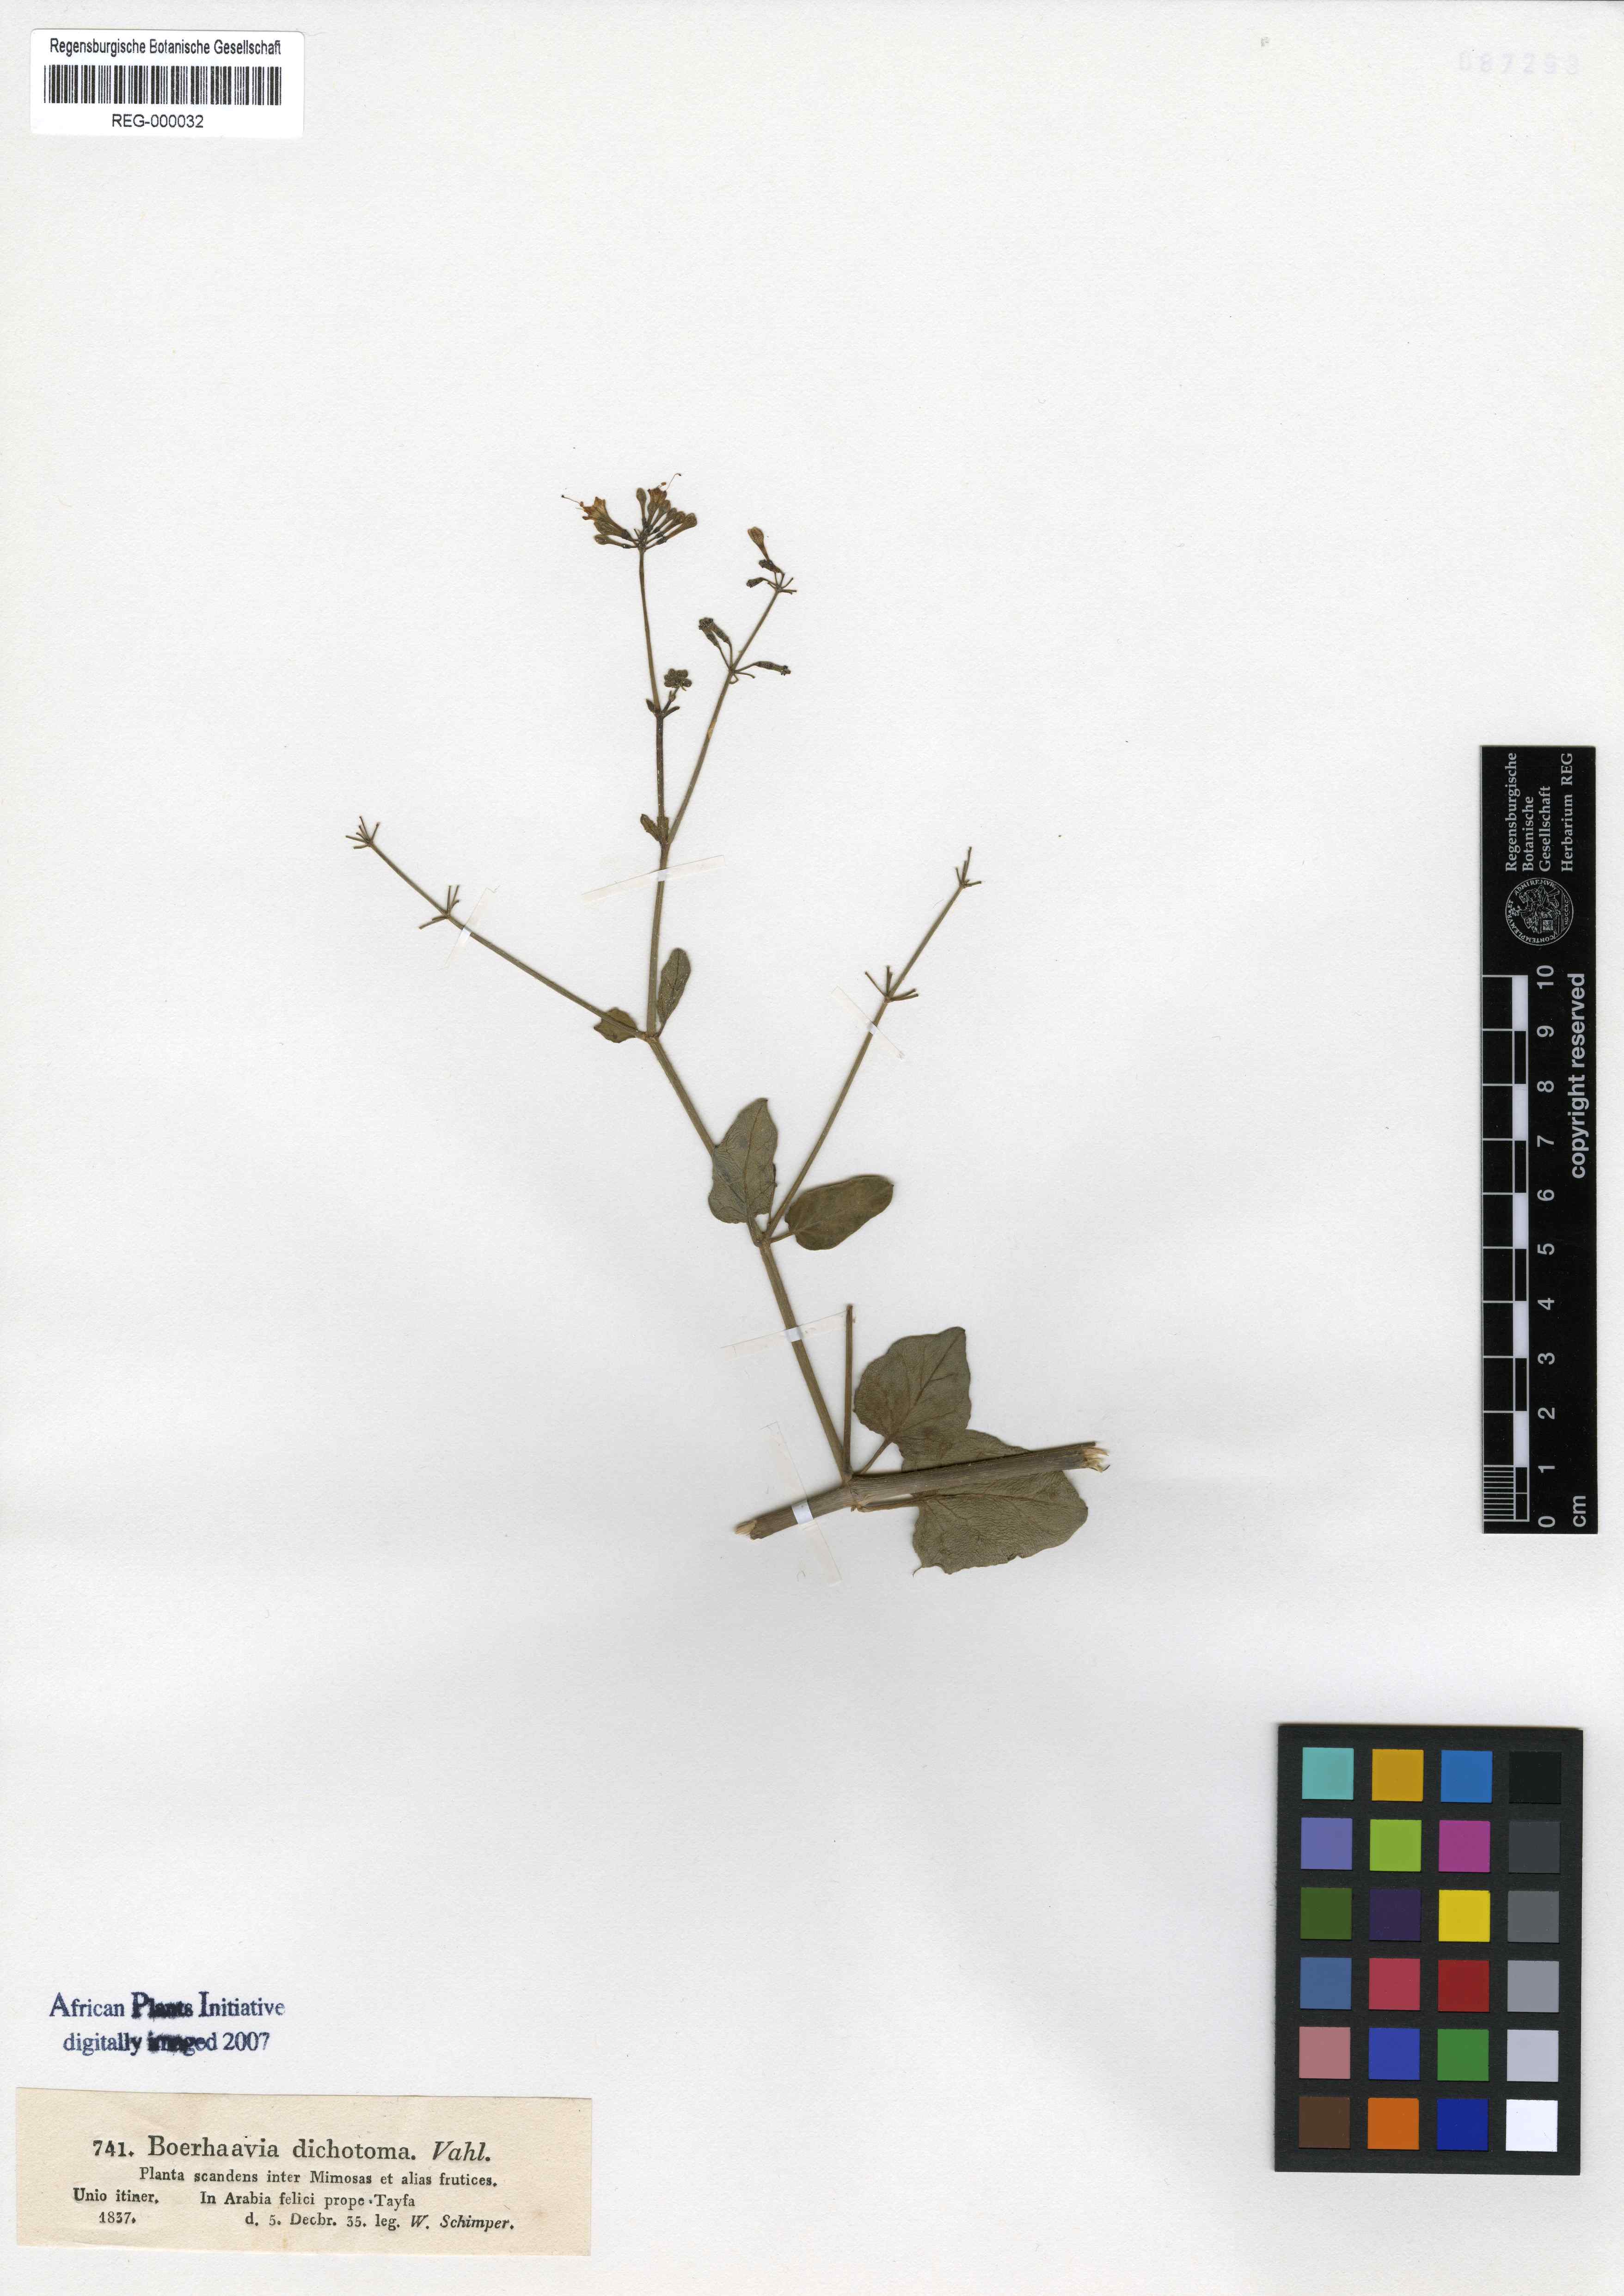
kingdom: Plantae
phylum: Tracheophyta
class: Magnoliopsida
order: Caryophyllales
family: Nyctaginaceae
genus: Commicarpus
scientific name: Commicarpus plumbagineus
